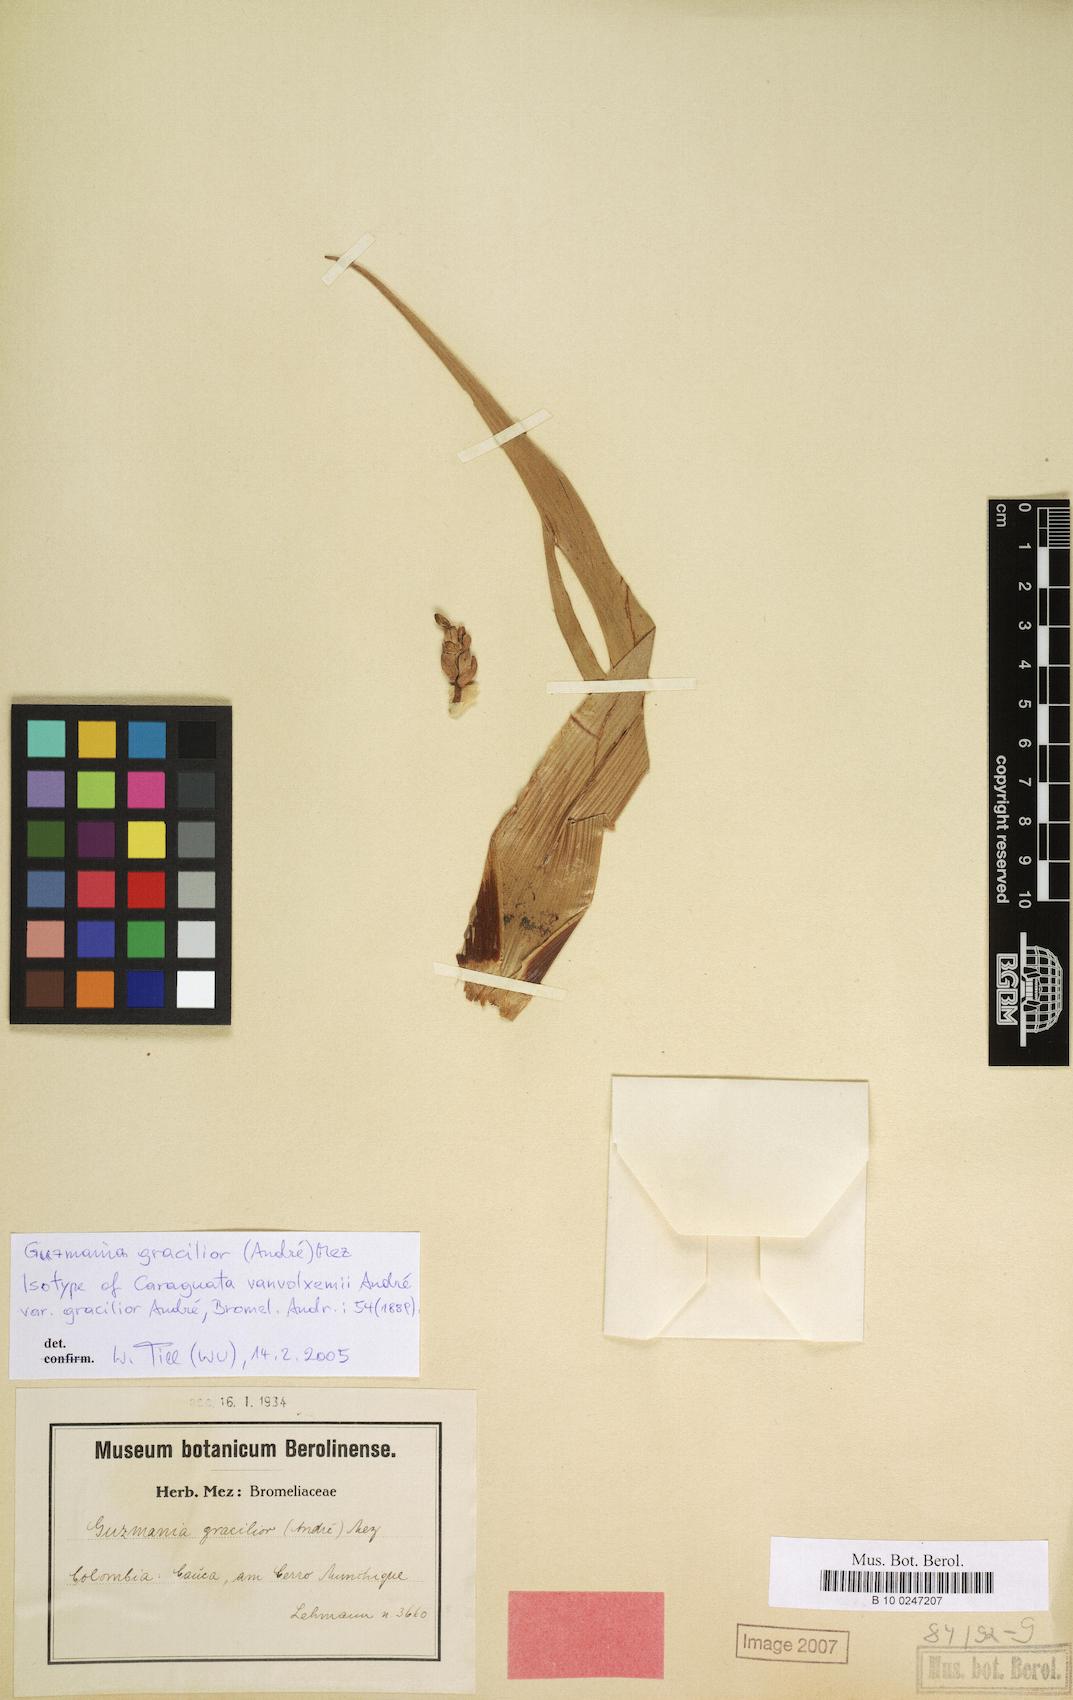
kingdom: Plantae
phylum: Tracheophyta
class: Liliopsida
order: Poales
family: Bromeliaceae
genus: Guzmania
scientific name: Guzmania gracilior
